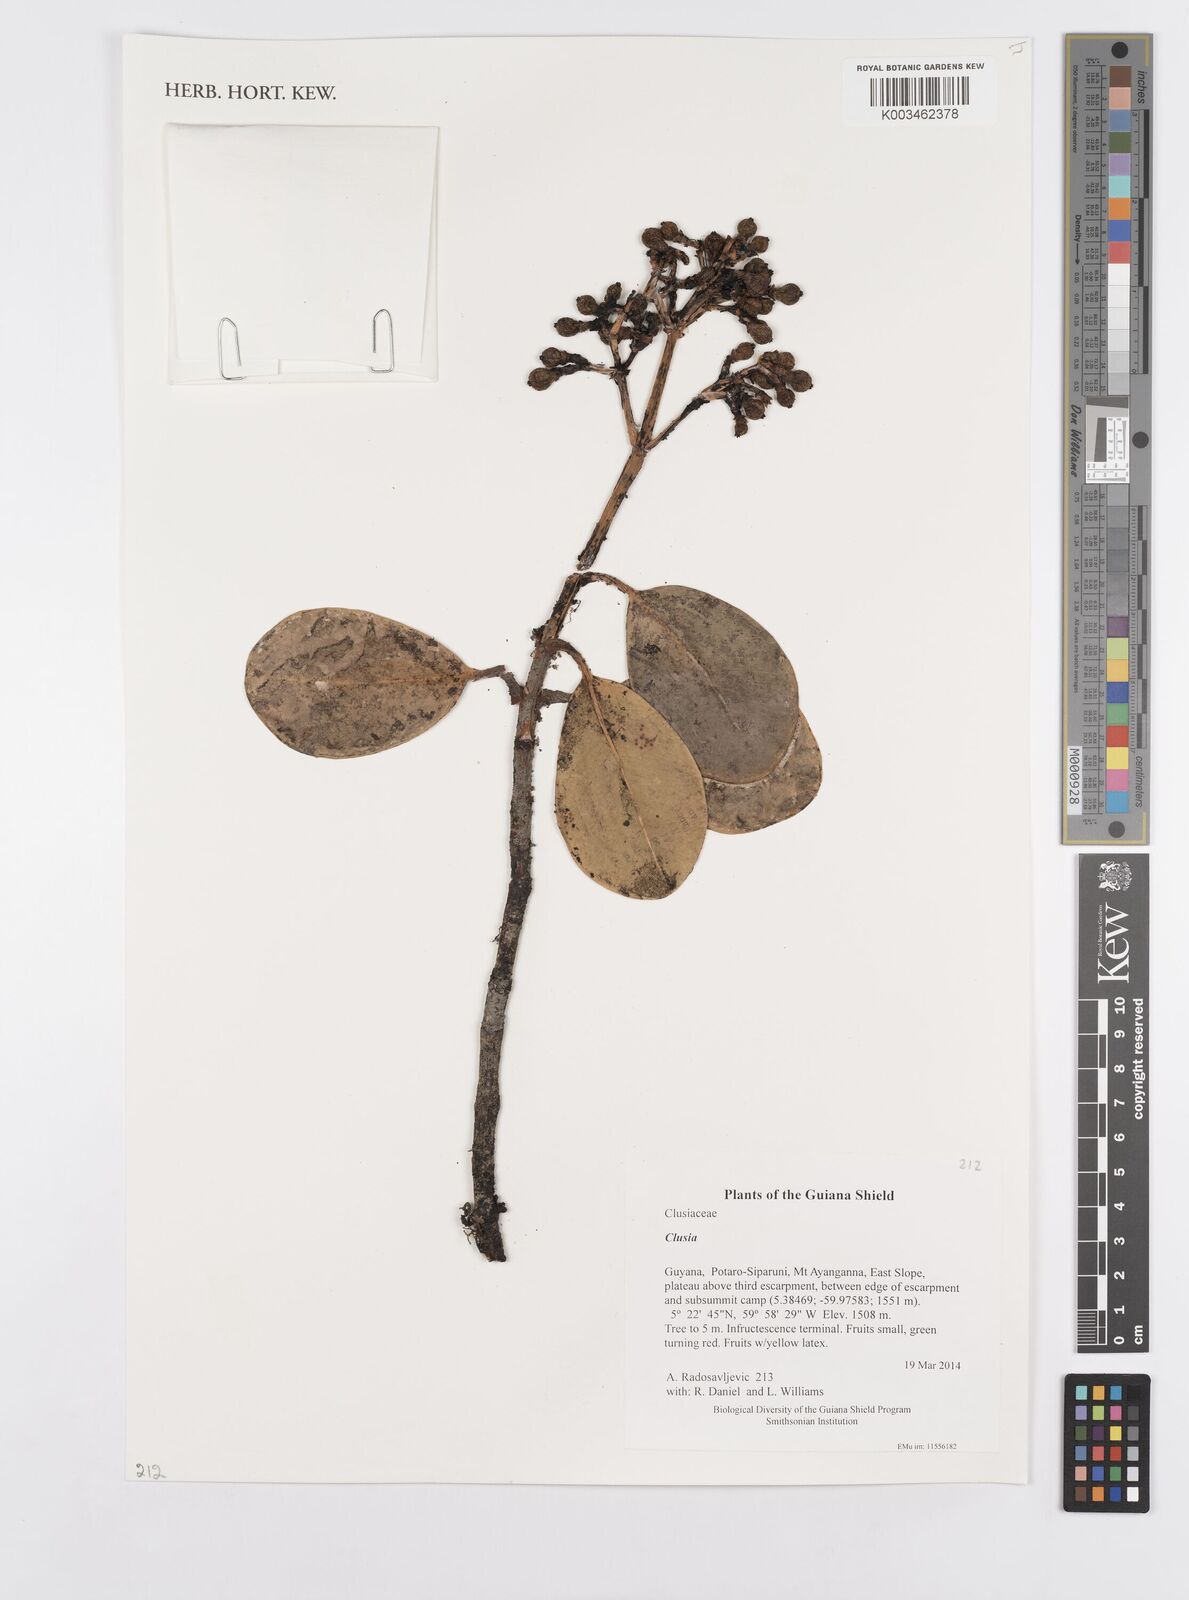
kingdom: Plantae
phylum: Tracheophyta
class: Magnoliopsida
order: Malpighiales
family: Clusiaceae
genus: Clusia
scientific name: Clusia
